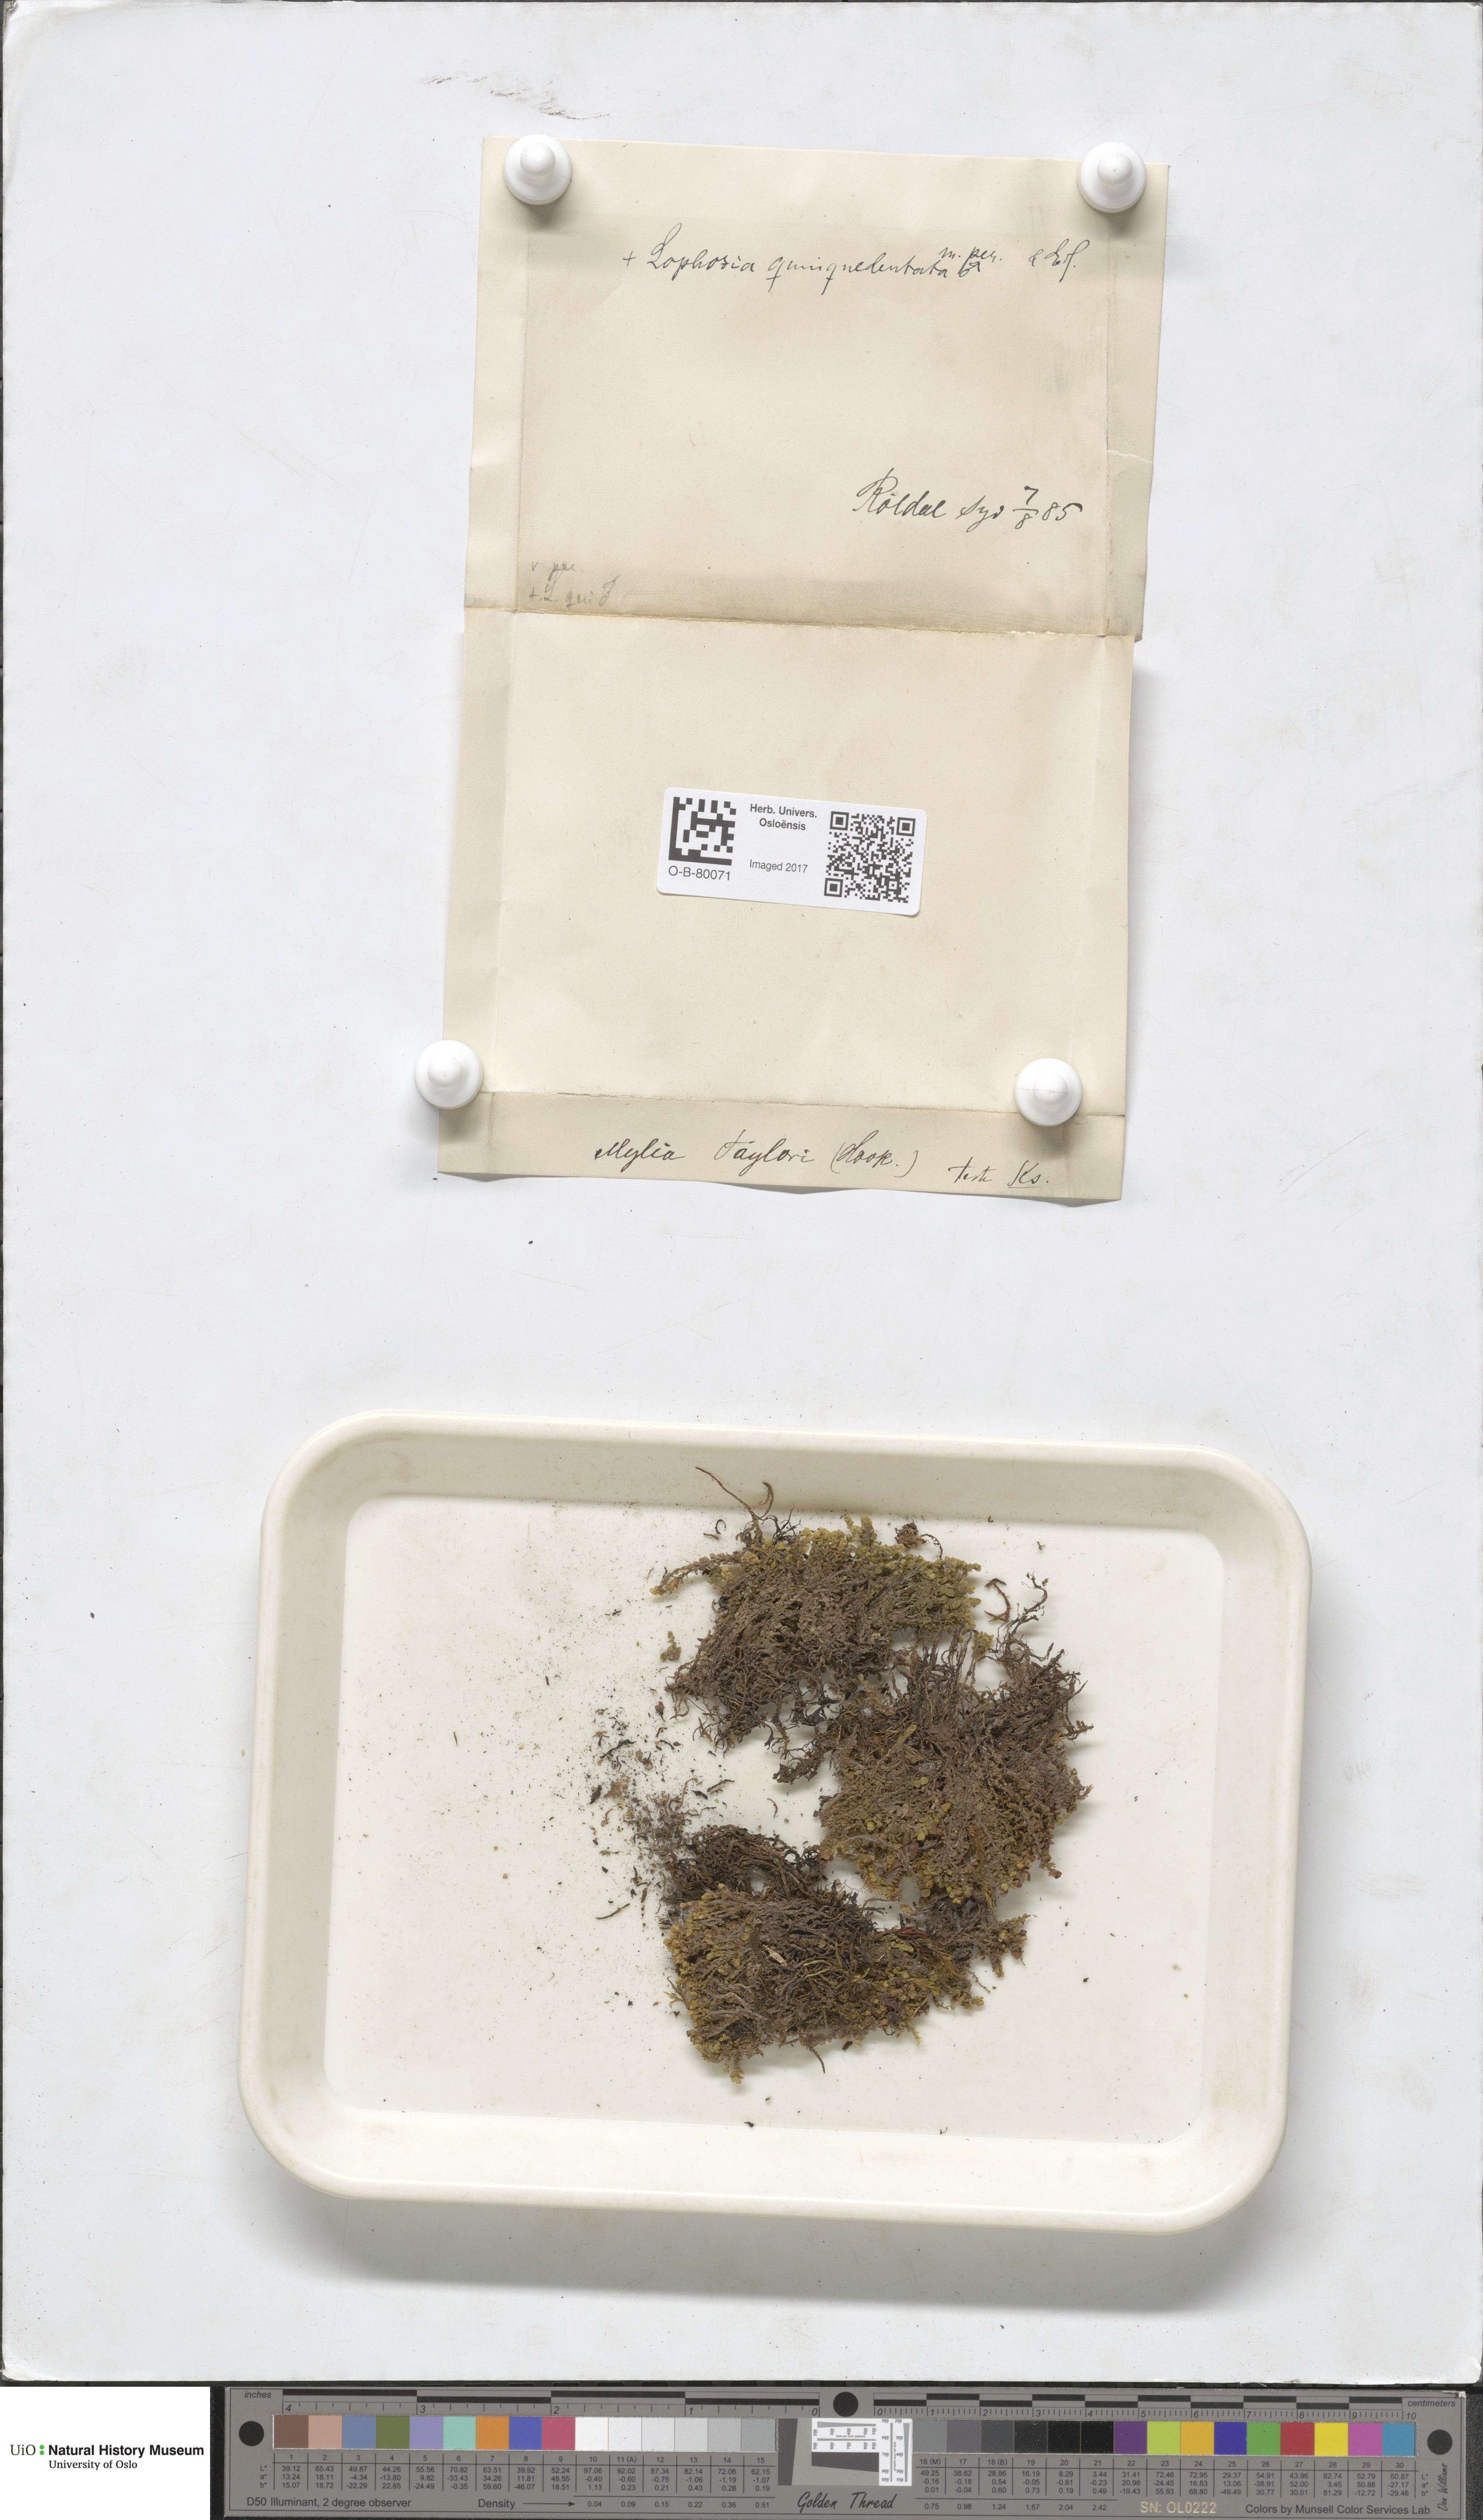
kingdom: Plantae
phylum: Marchantiophyta
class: Jungermanniopsida
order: Jungermanniales
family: Myliaceae
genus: Mylia
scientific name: Mylia taylorii
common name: Taylor s flapwort
